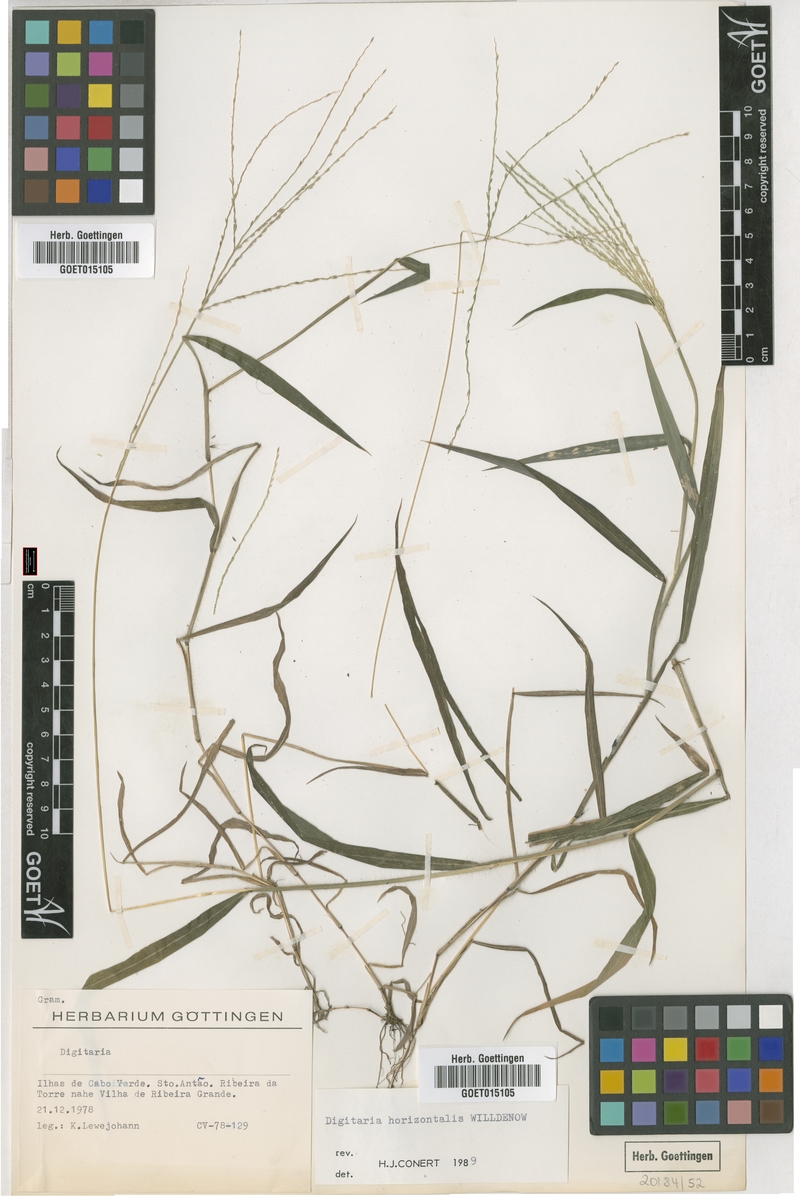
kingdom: Plantae
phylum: Tracheophyta
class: Liliopsida
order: Poales
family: Poaceae
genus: Digitaria
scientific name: Digitaria horizontalis
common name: Jamaican crabgrass
